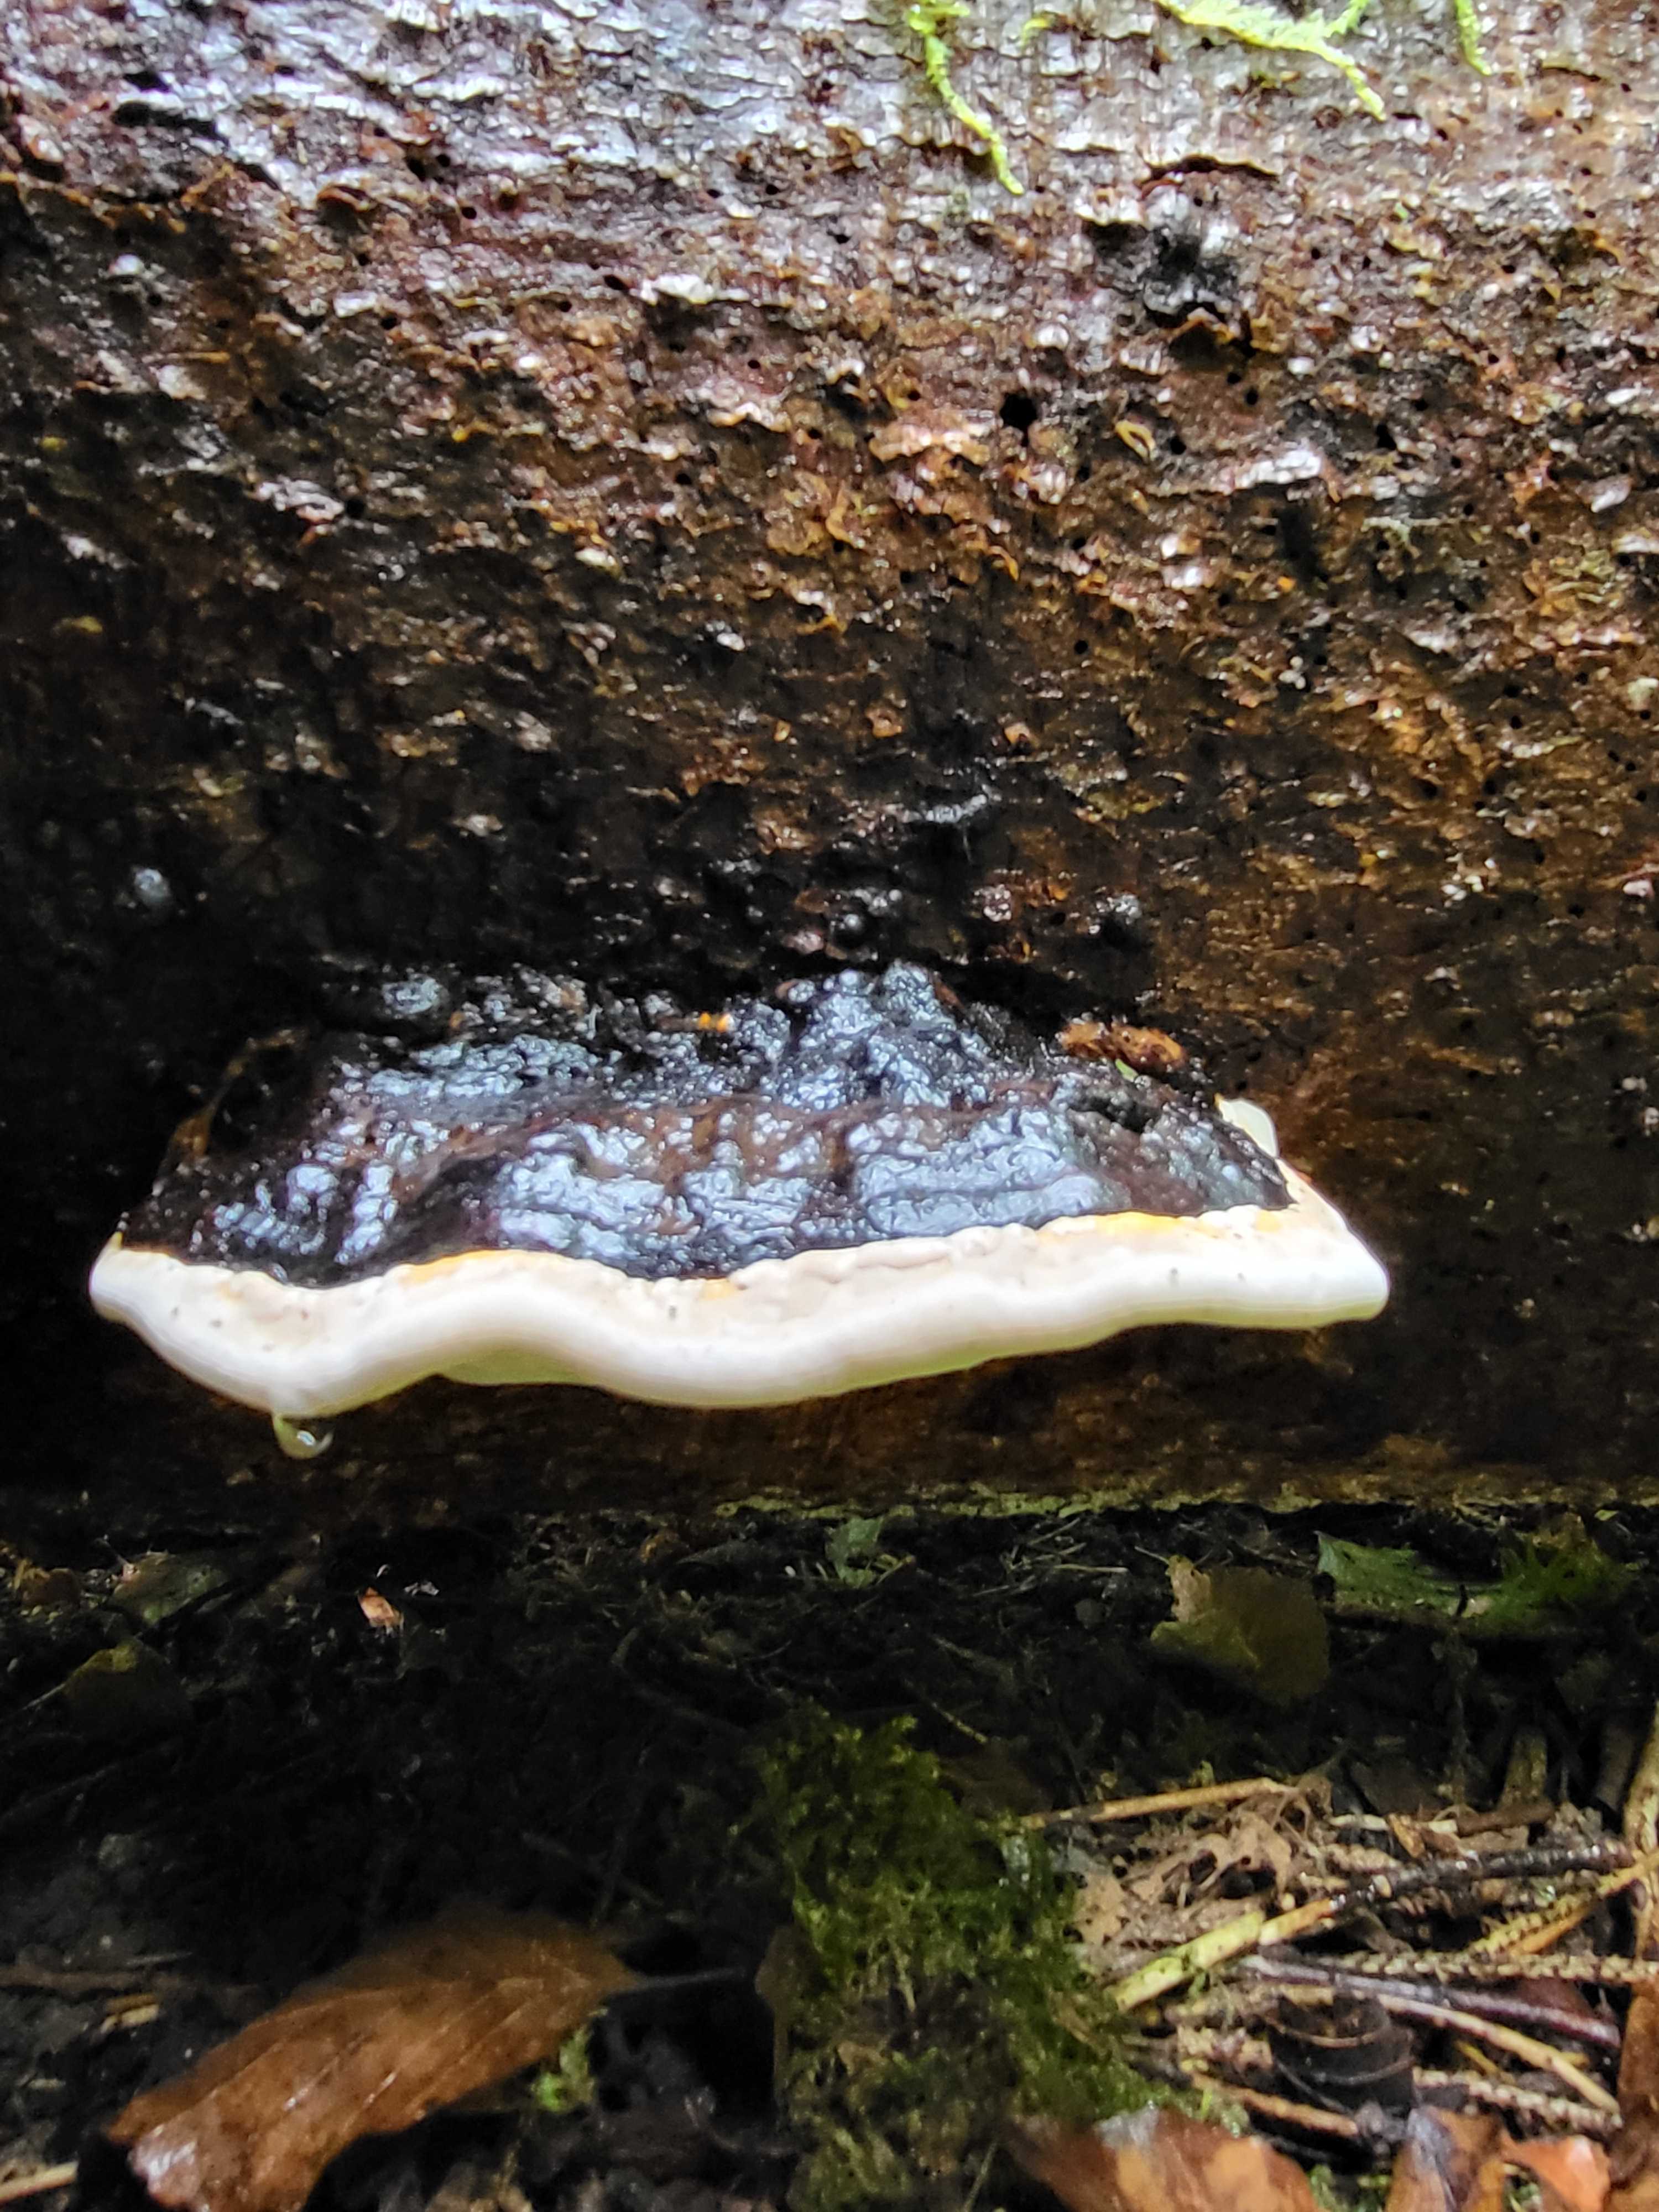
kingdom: Fungi
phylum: Basidiomycota
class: Agaricomycetes
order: Polyporales
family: Fomitopsidaceae
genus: Fomitopsis
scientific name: Fomitopsis pinicola
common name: randbæltet hovporesvamp
